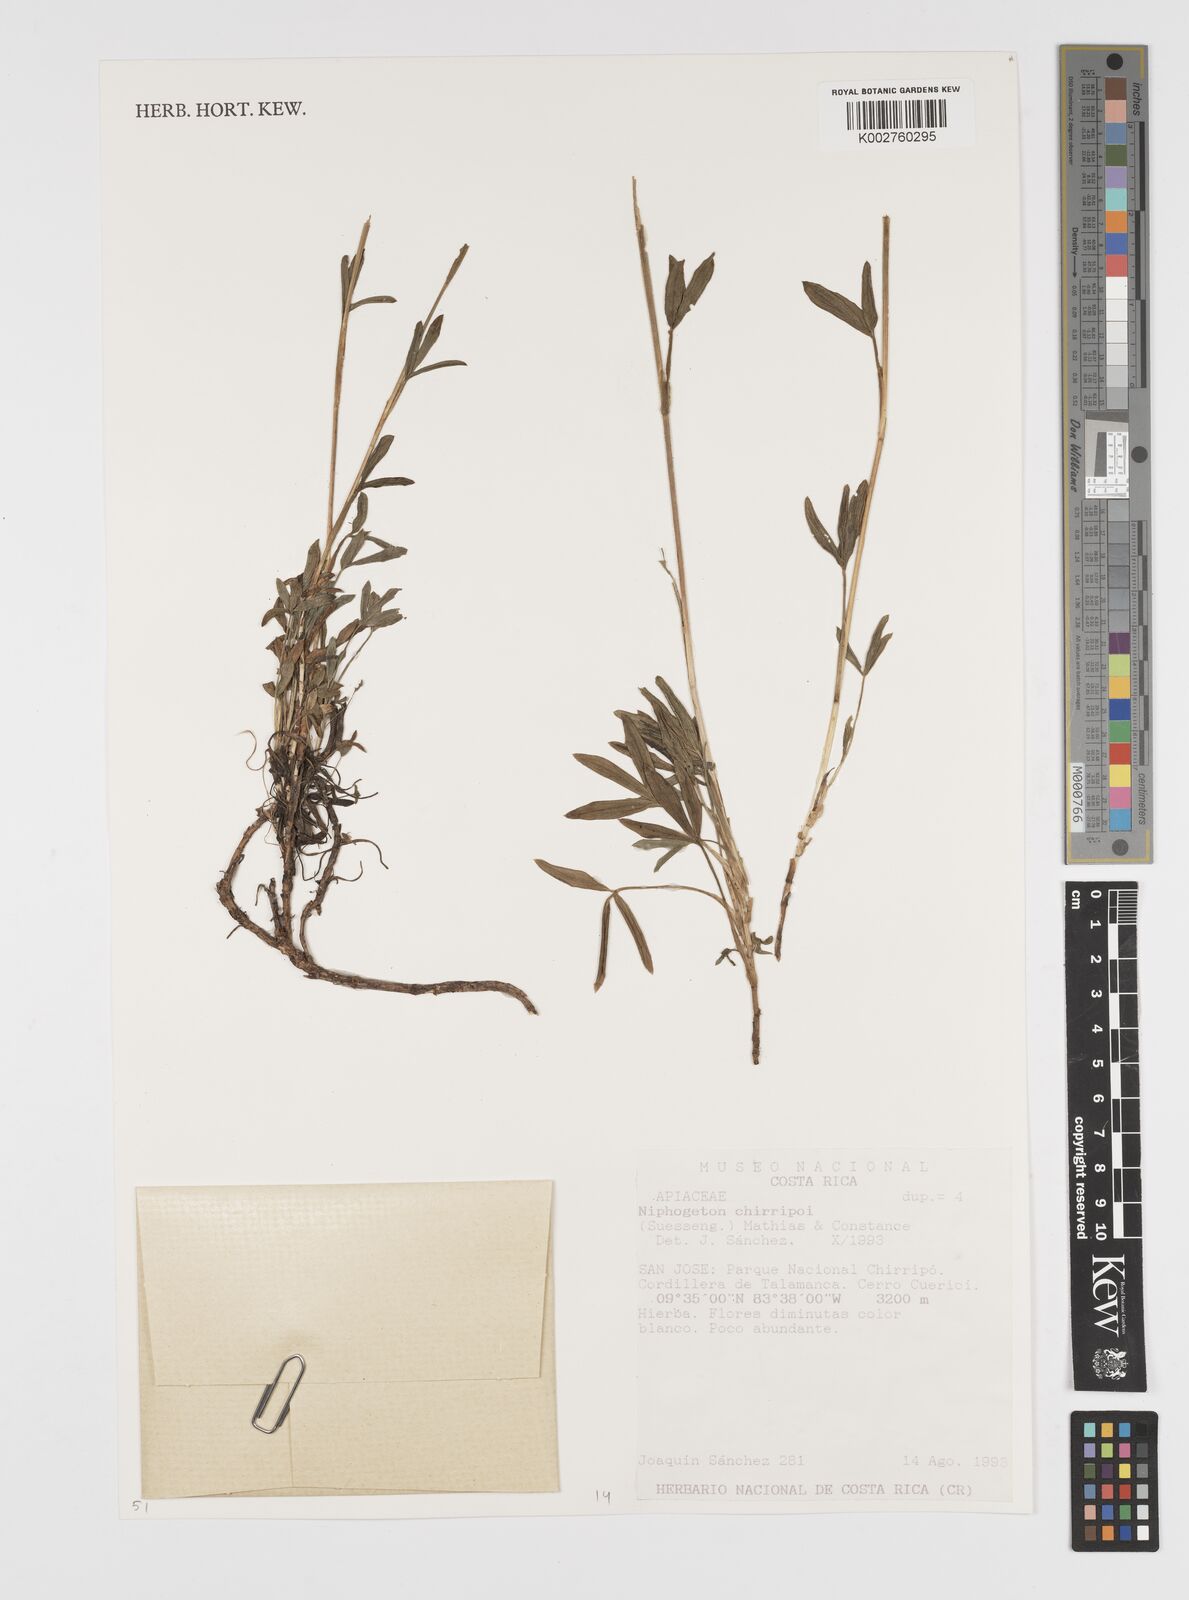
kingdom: Plantae
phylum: Tracheophyta
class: Magnoliopsida
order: Apiales
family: Apiaceae
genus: Niphogeton
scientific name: Niphogeton chirripoi
